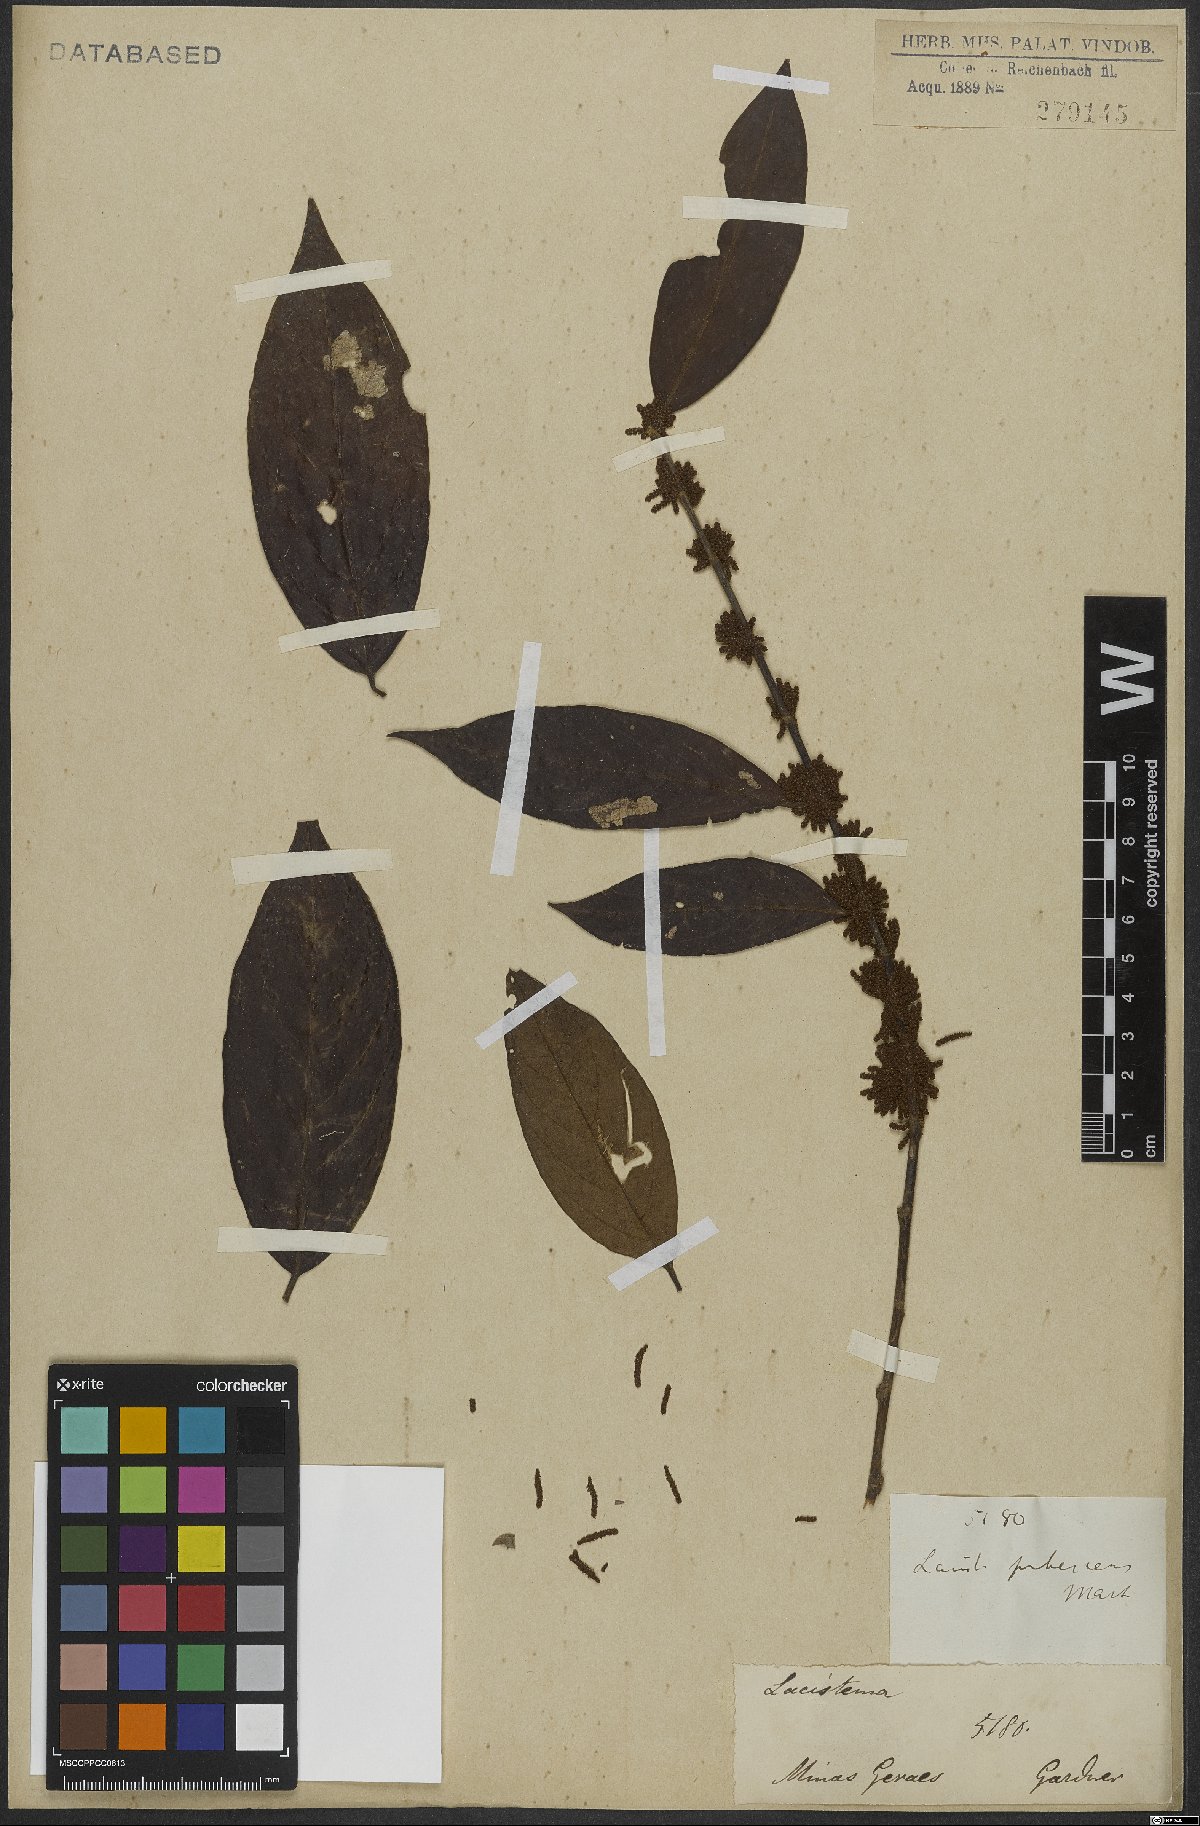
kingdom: Plantae
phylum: Tracheophyta
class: Magnoliopsida
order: Malpighiales
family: Lacistemataceae
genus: Lacistema
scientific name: Lacistema pubescens
